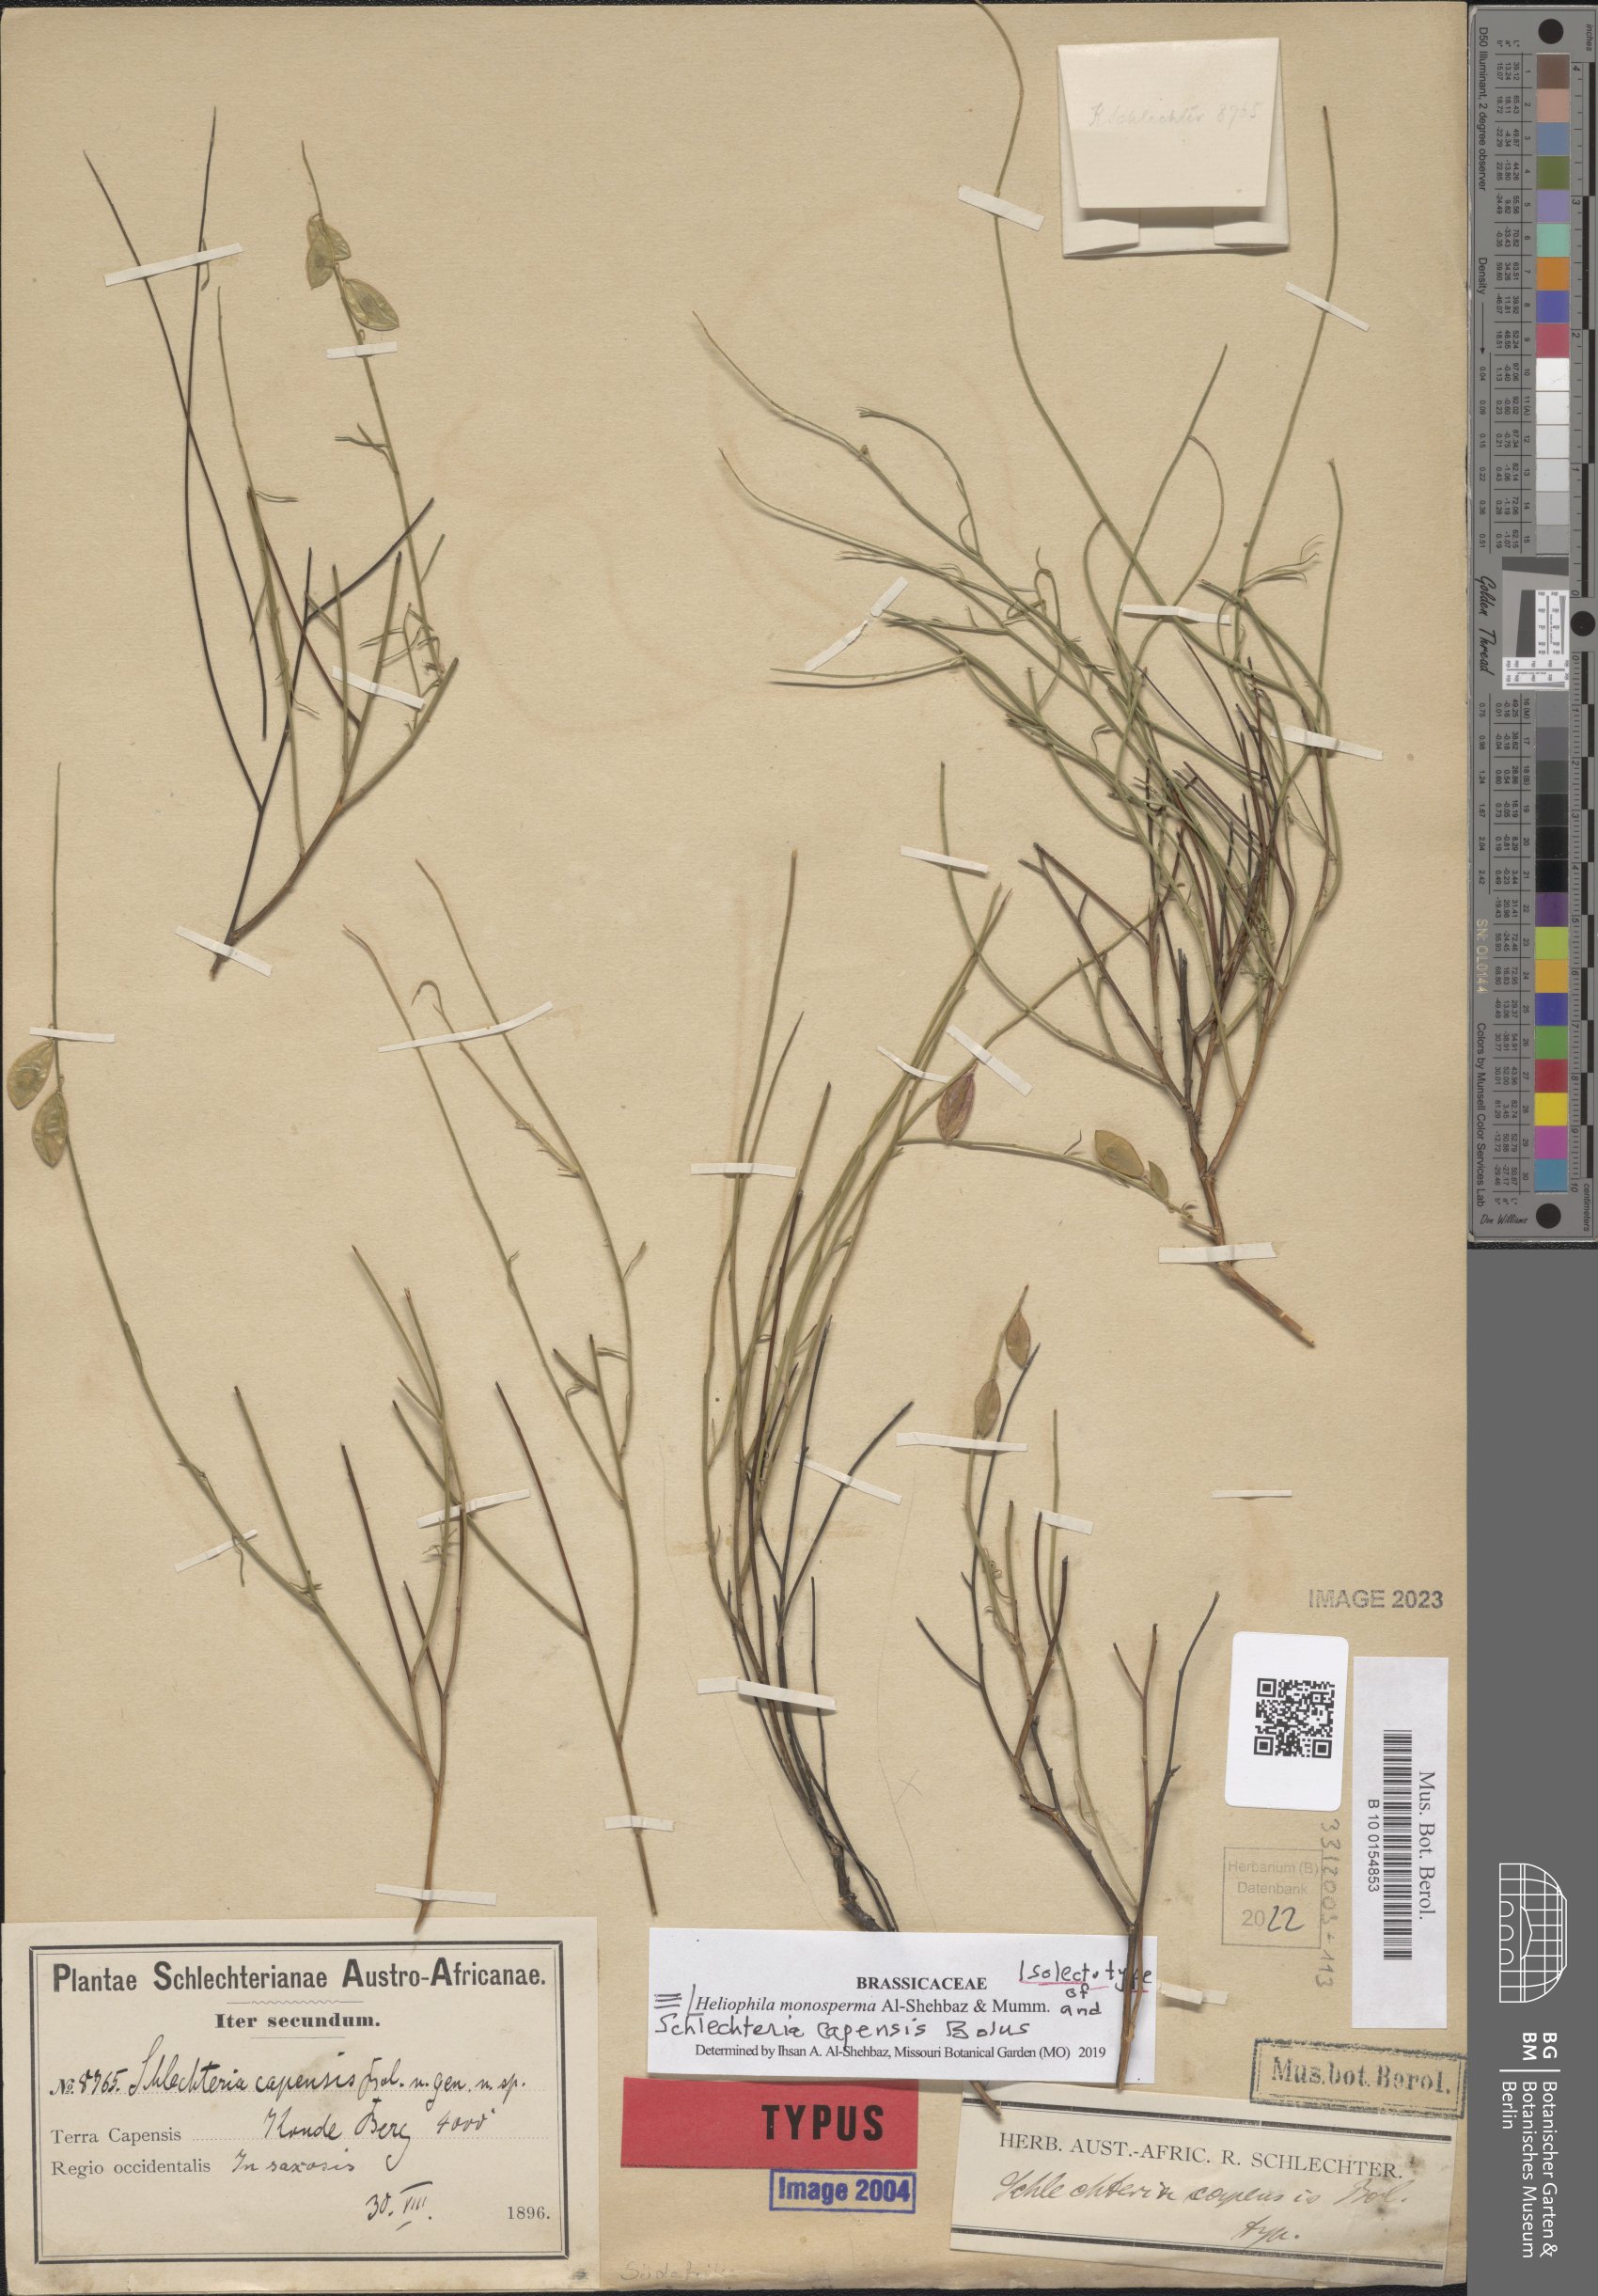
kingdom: Plantae
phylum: Tracheophyta
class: Magnoliopsida
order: Brassicales
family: Brassicaceae
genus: Heliophila
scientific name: Heliophila monosperma
